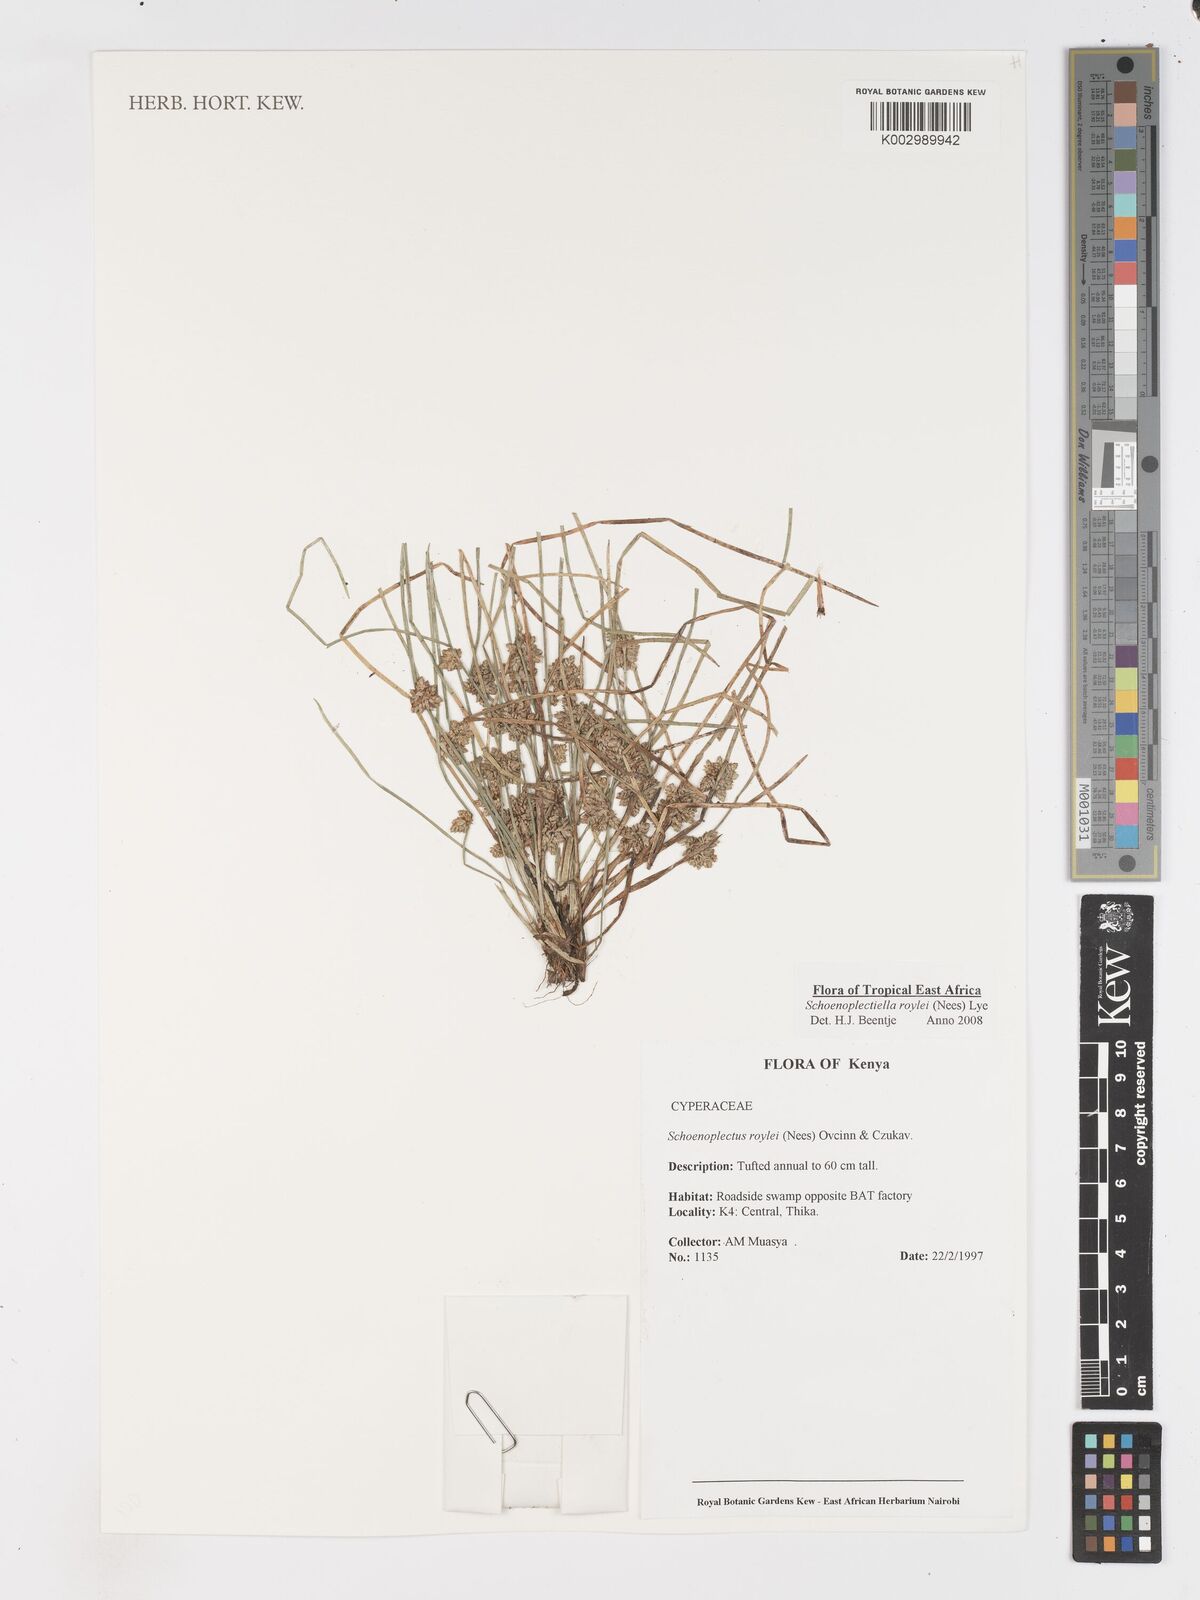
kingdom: Plantae
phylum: Tracheophyta
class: Liliopsida
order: Poales
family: Cyperaceae
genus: Schoenoplectiella
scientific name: Schoenoplectiella roylei
